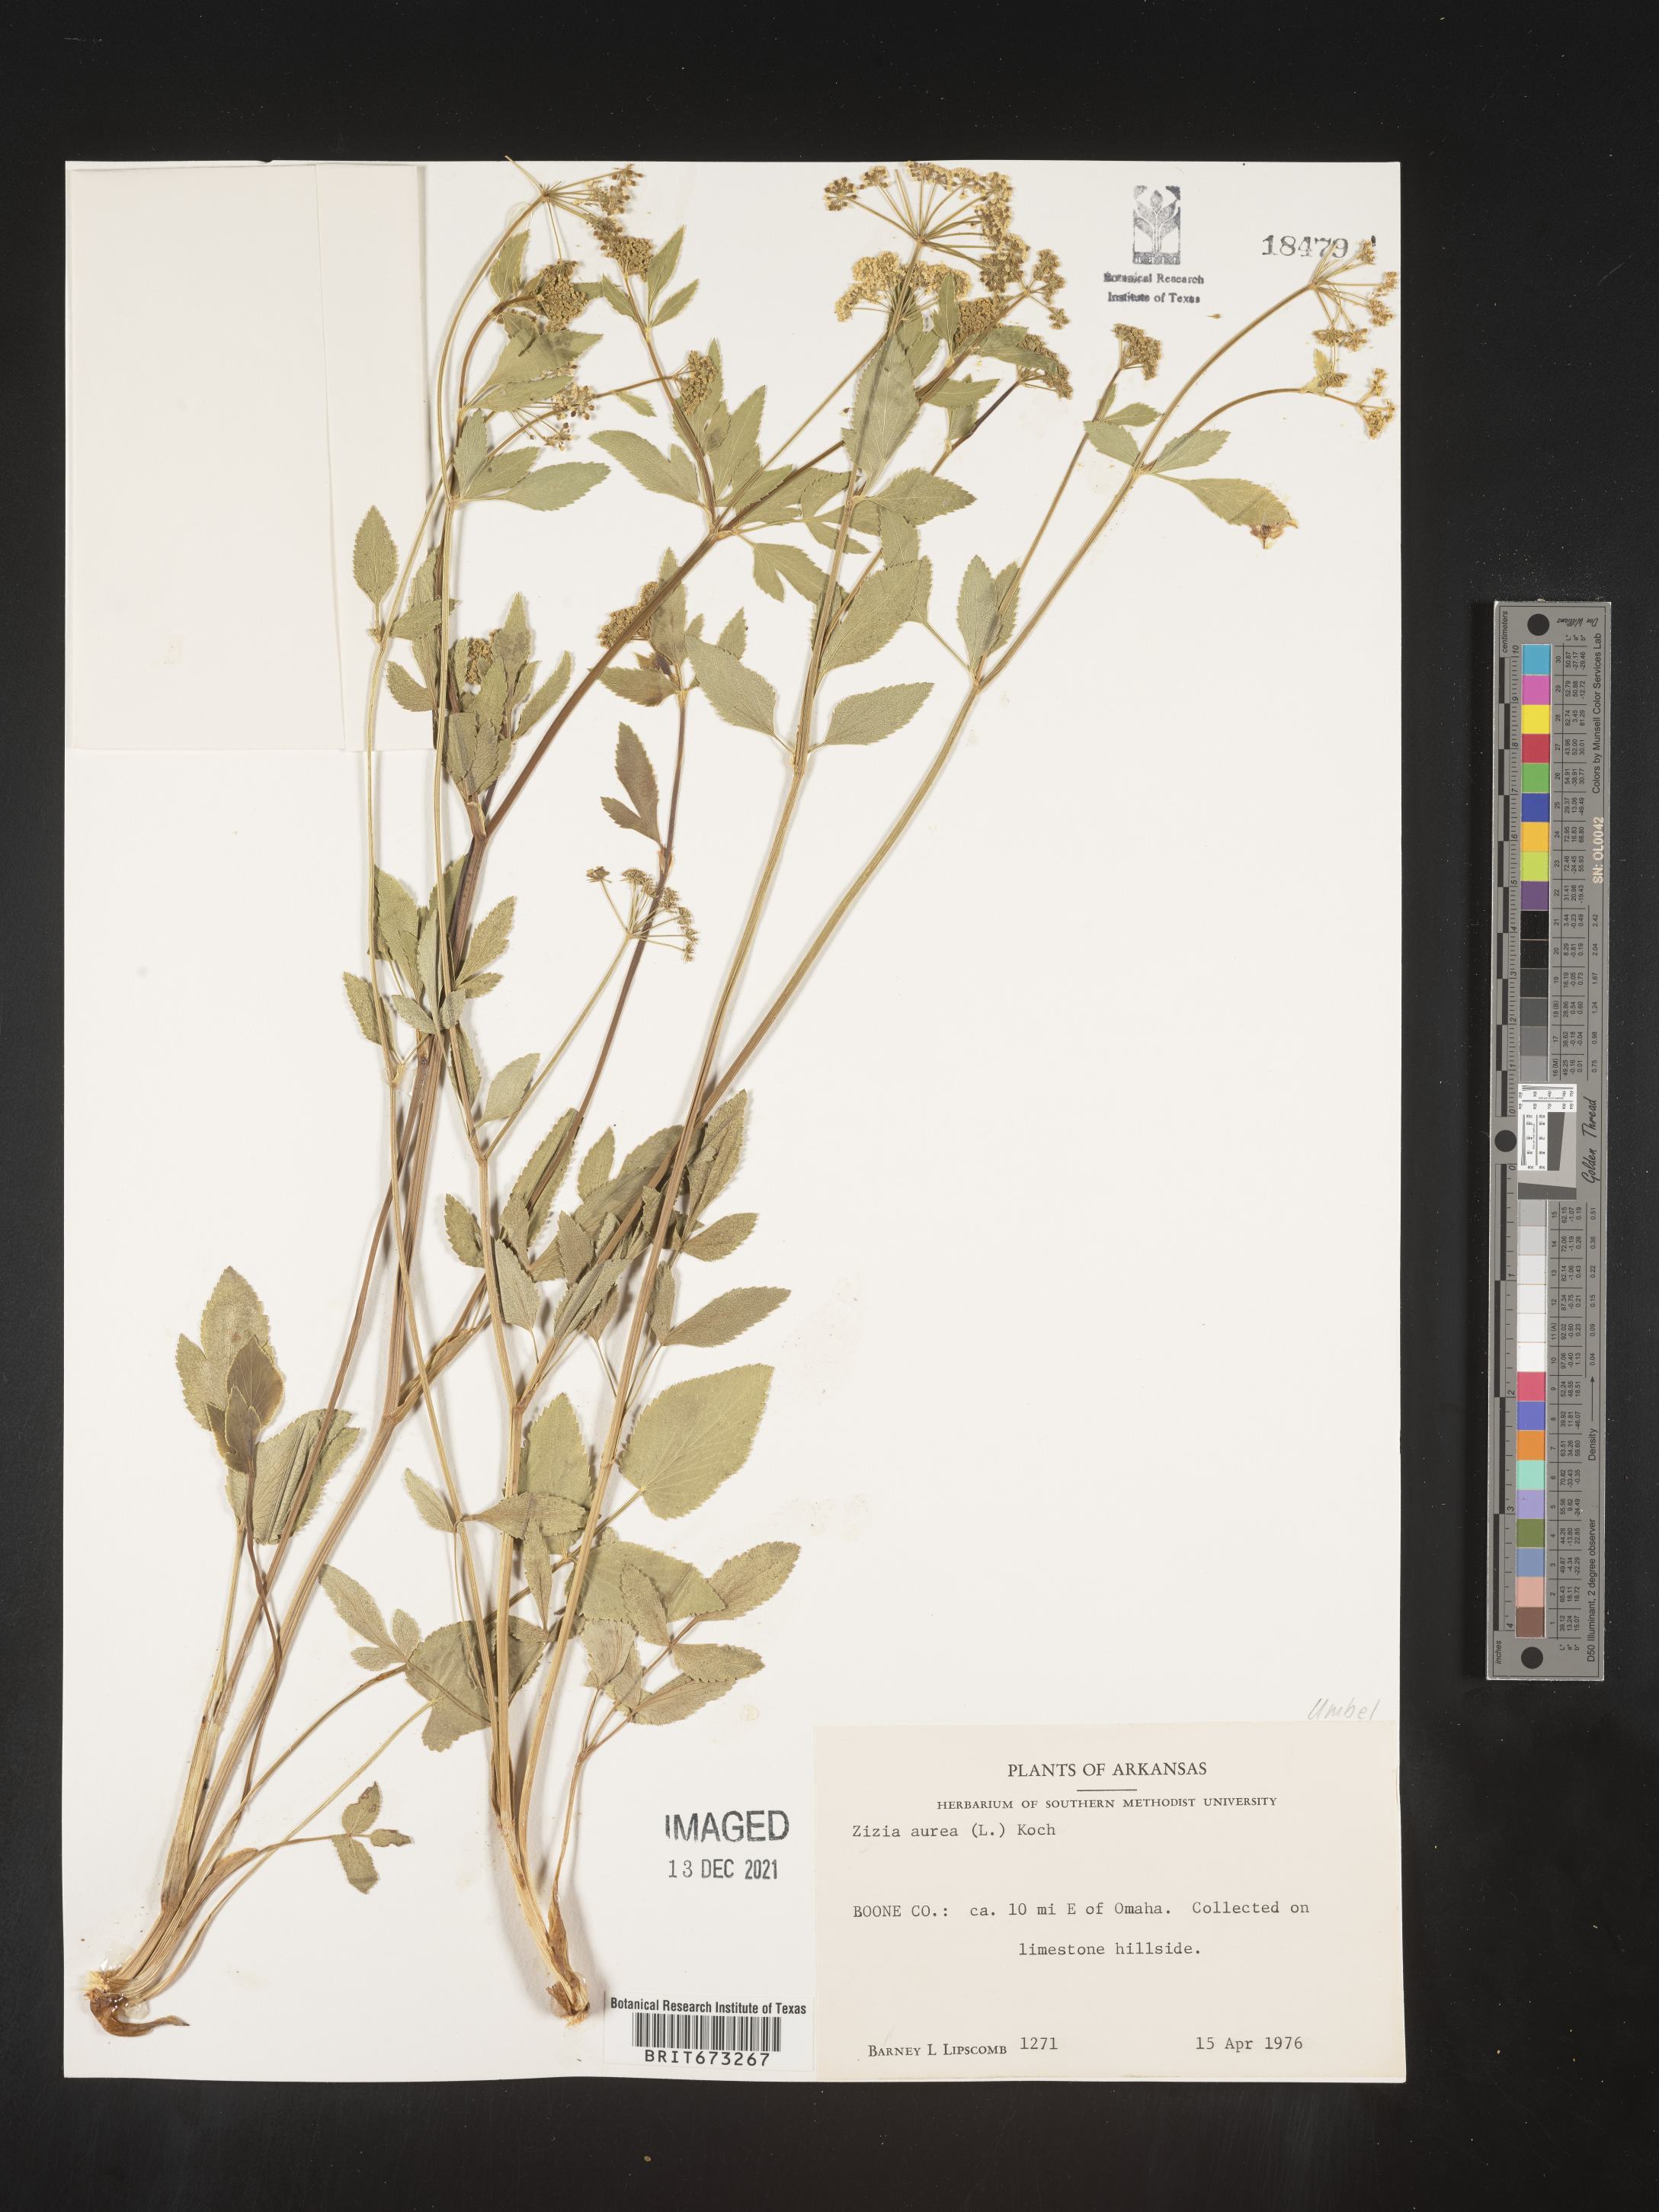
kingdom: Plantae
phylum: Tracheophyta
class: Magnoliopsida
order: Apiales
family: Apiaceae
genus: Zizia
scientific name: Zizia aurea
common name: Golden alexanders
